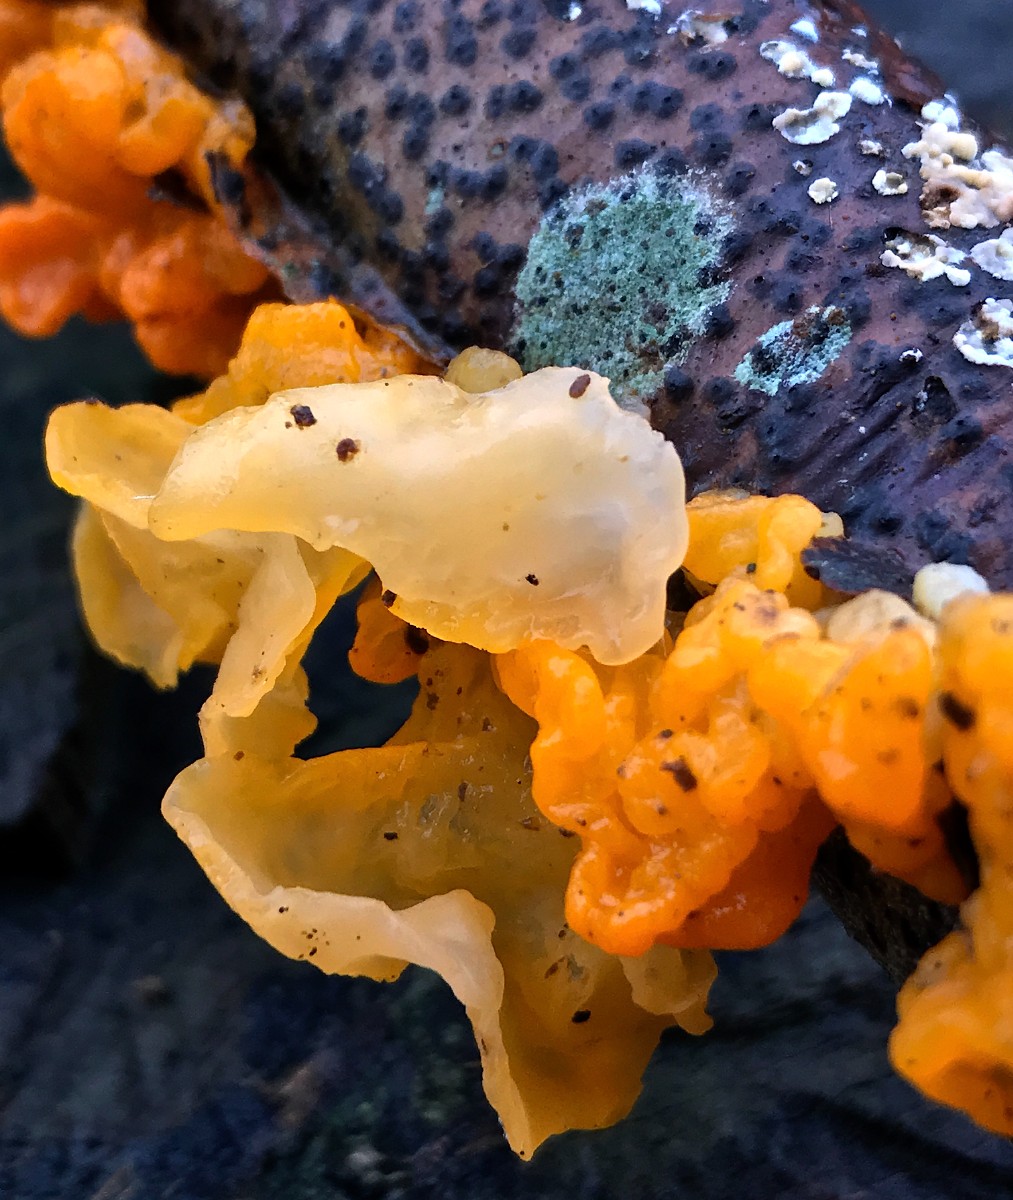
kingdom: Fungi
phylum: Basidiomycota
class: Tremellomycetes
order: Tremellales
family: Tremellaceae
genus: Tremella
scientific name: Tremella mesenterica
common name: gul bævresvamp
